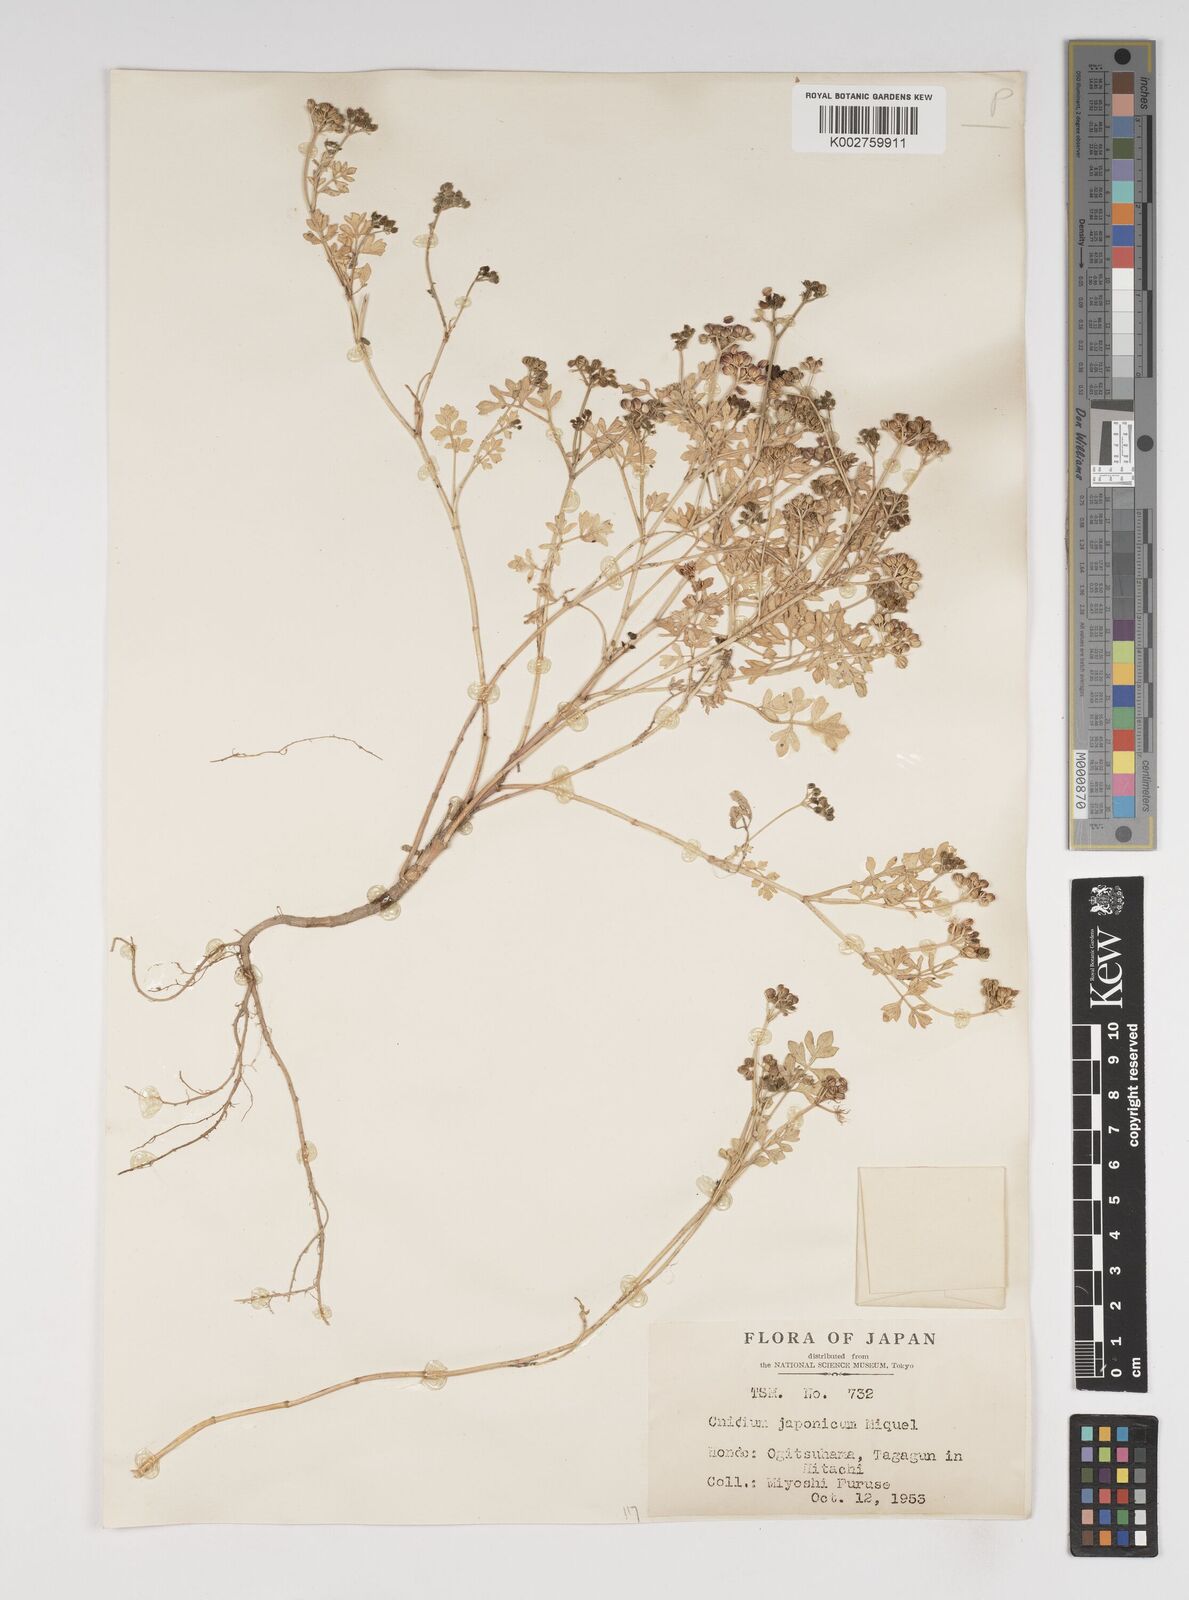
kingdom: Plantae
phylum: Tracheophyta
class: Magnoliopsida
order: Apiales
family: Apiaceae
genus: Cnidium
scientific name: Cnidium japonicum
